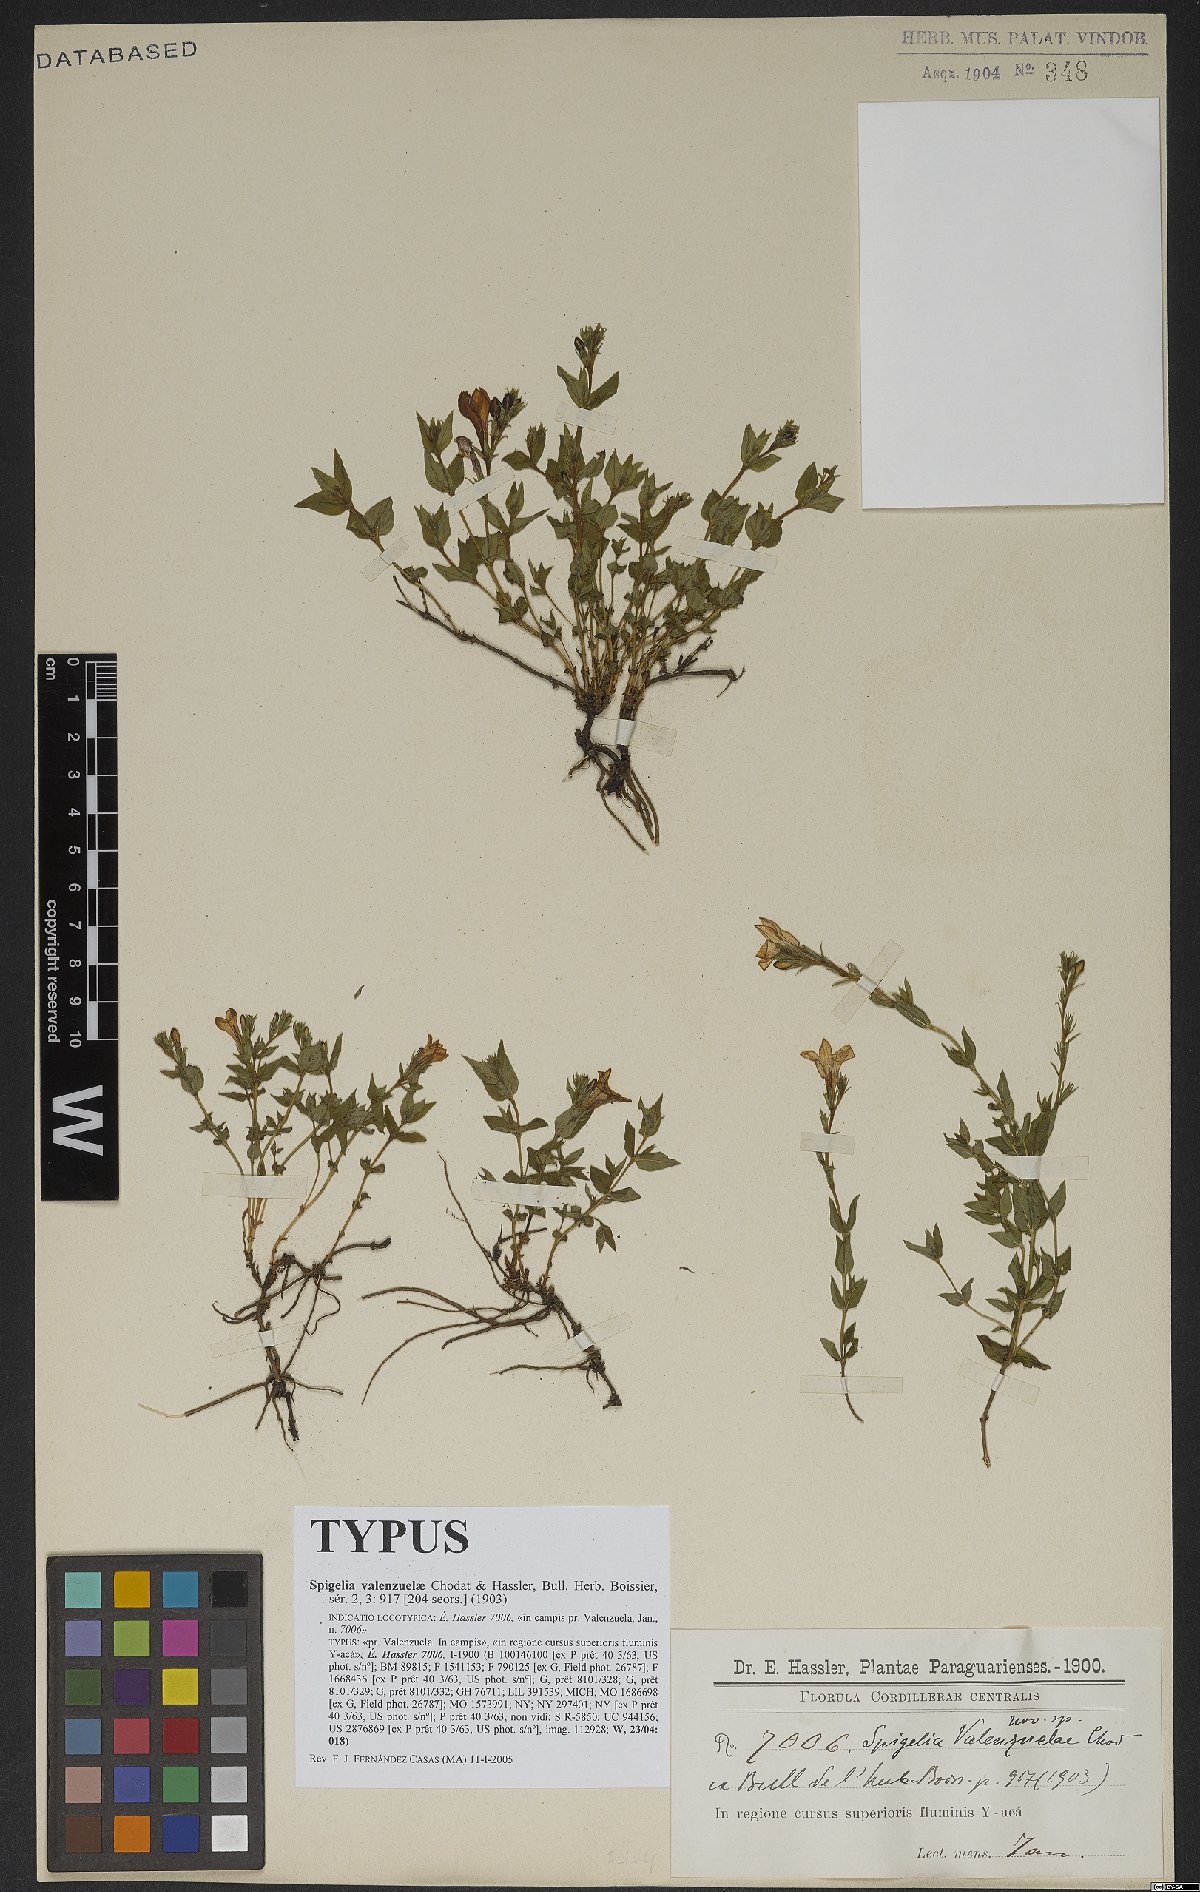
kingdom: Plantae
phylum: Tracheophyta
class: Magnoliopsida
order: Gentianales
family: Loganiaceae
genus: Spigelia
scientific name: Spigelia valenzuelae
